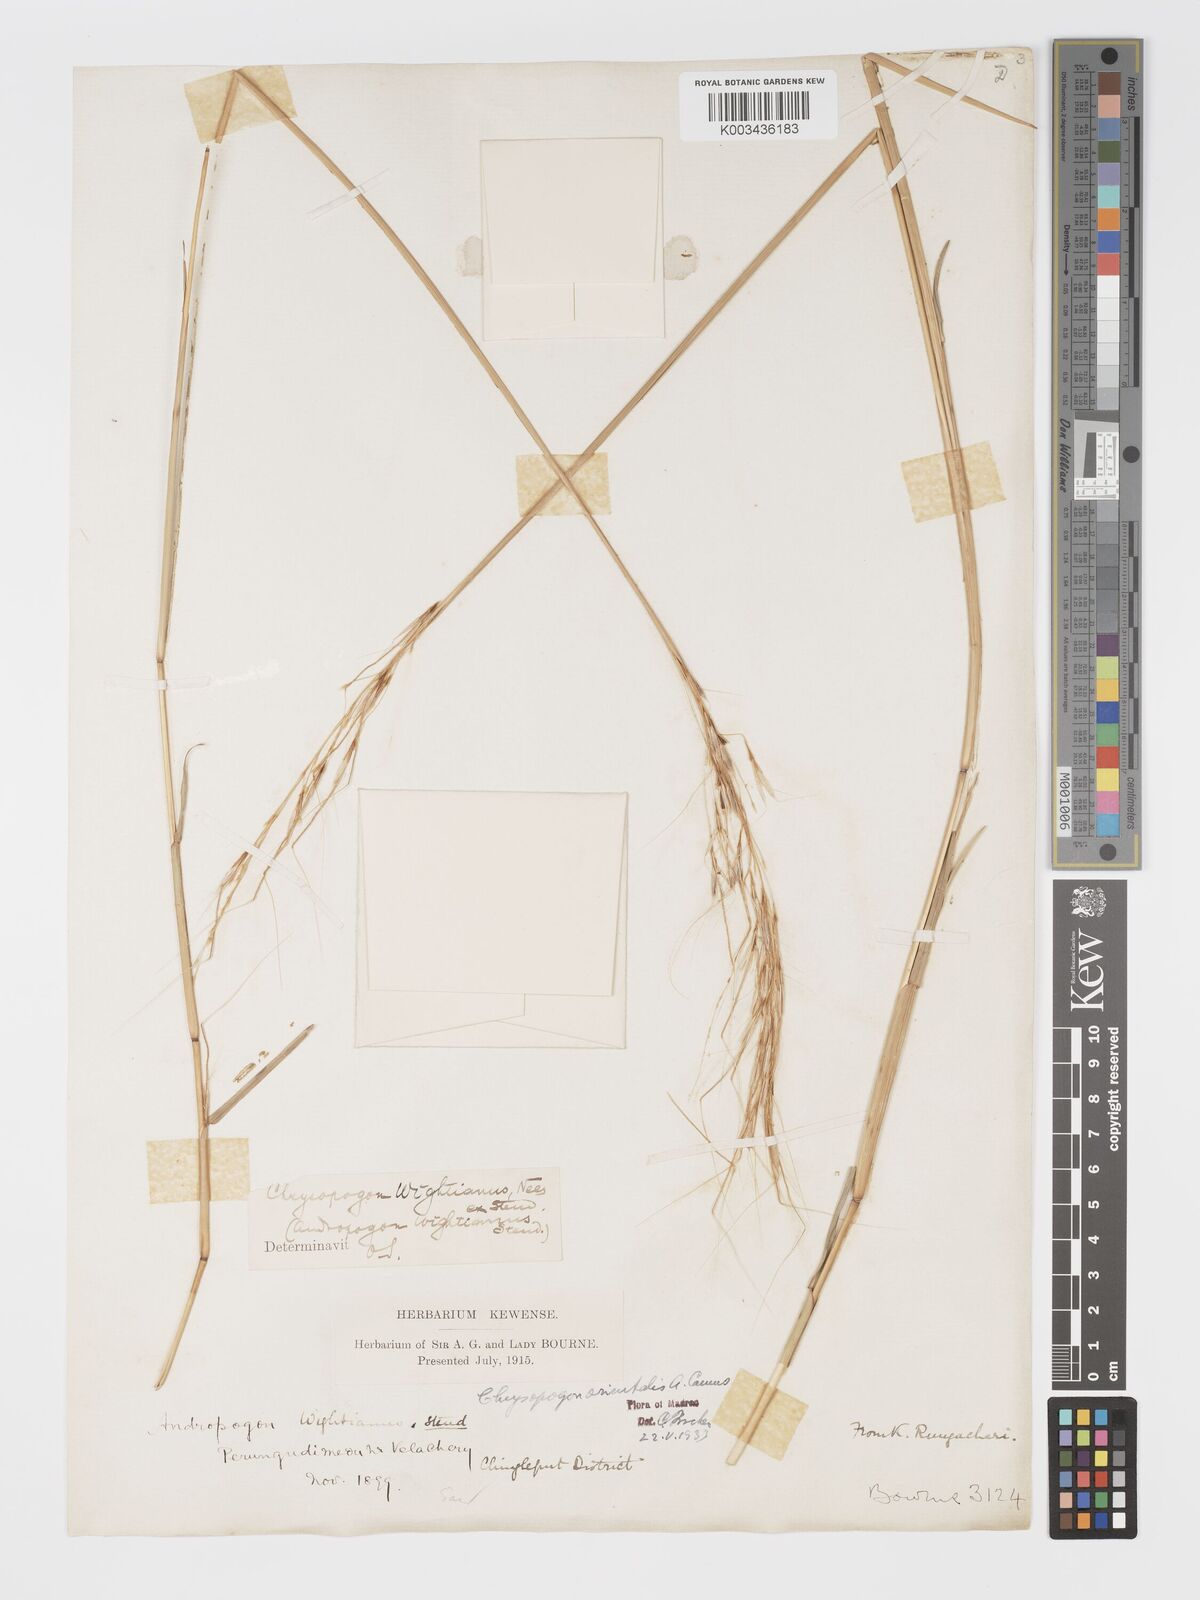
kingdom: Plantae
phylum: Tracheophyta
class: Liliopsida
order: Poales
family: Poaceae
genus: Chrysopogon
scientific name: Chrysopogon orientalis
